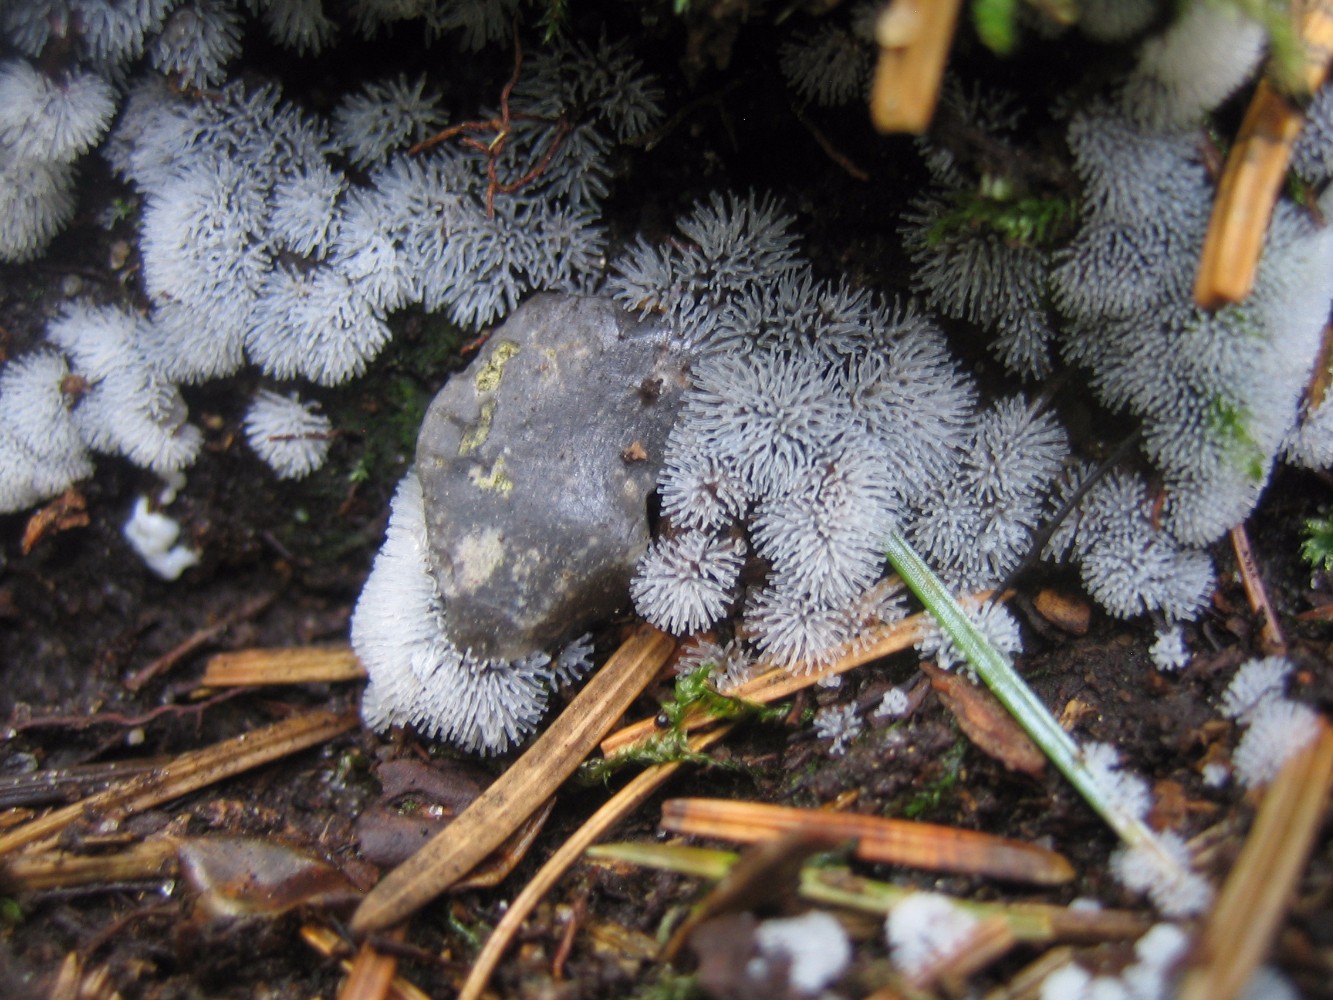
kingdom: Protozoa
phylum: Mycetozoa
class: Protosteliomycetes
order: Ceratiomyxales
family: Ceratiomyxaceae
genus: Ceratiomyxa
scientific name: Ceratiomyxa fruticulosa
